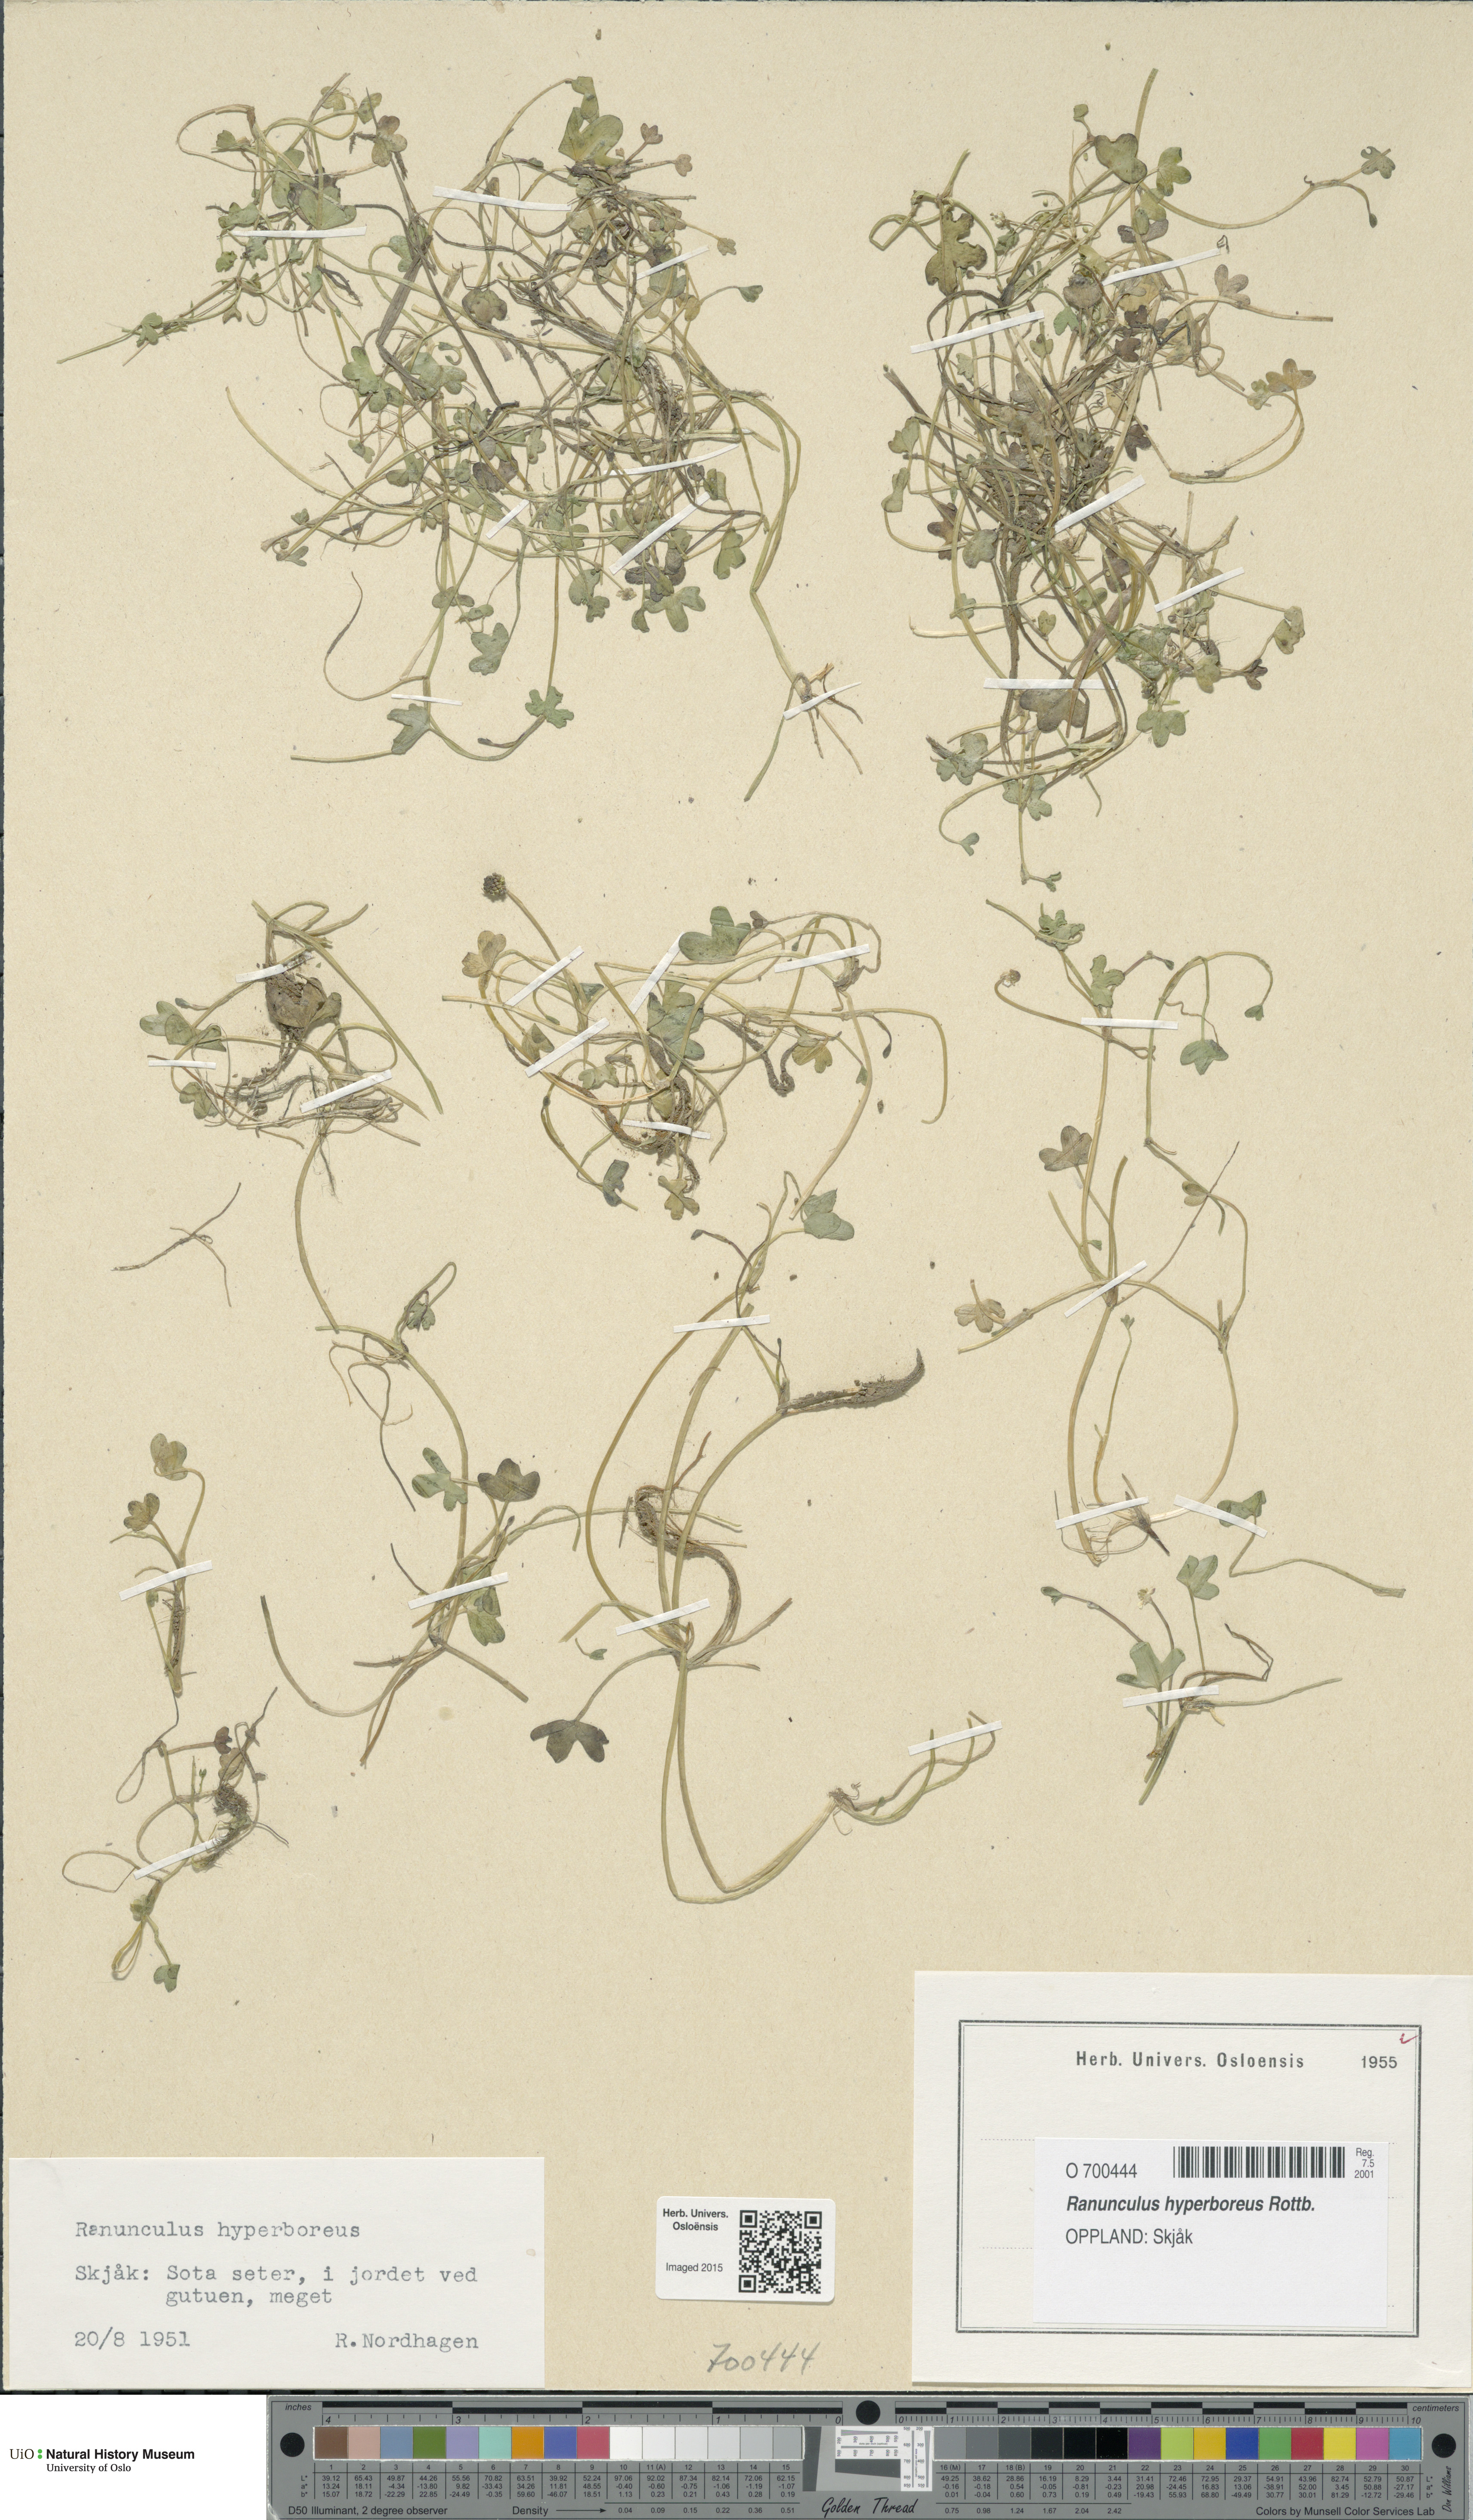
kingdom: Plantae
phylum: Tracheophyta
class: Magnoliopsida
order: Ranunculales
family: Ranunculaceae
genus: Ranunculus
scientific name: Ranunculus hyperboreus
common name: Arctic buttercup
